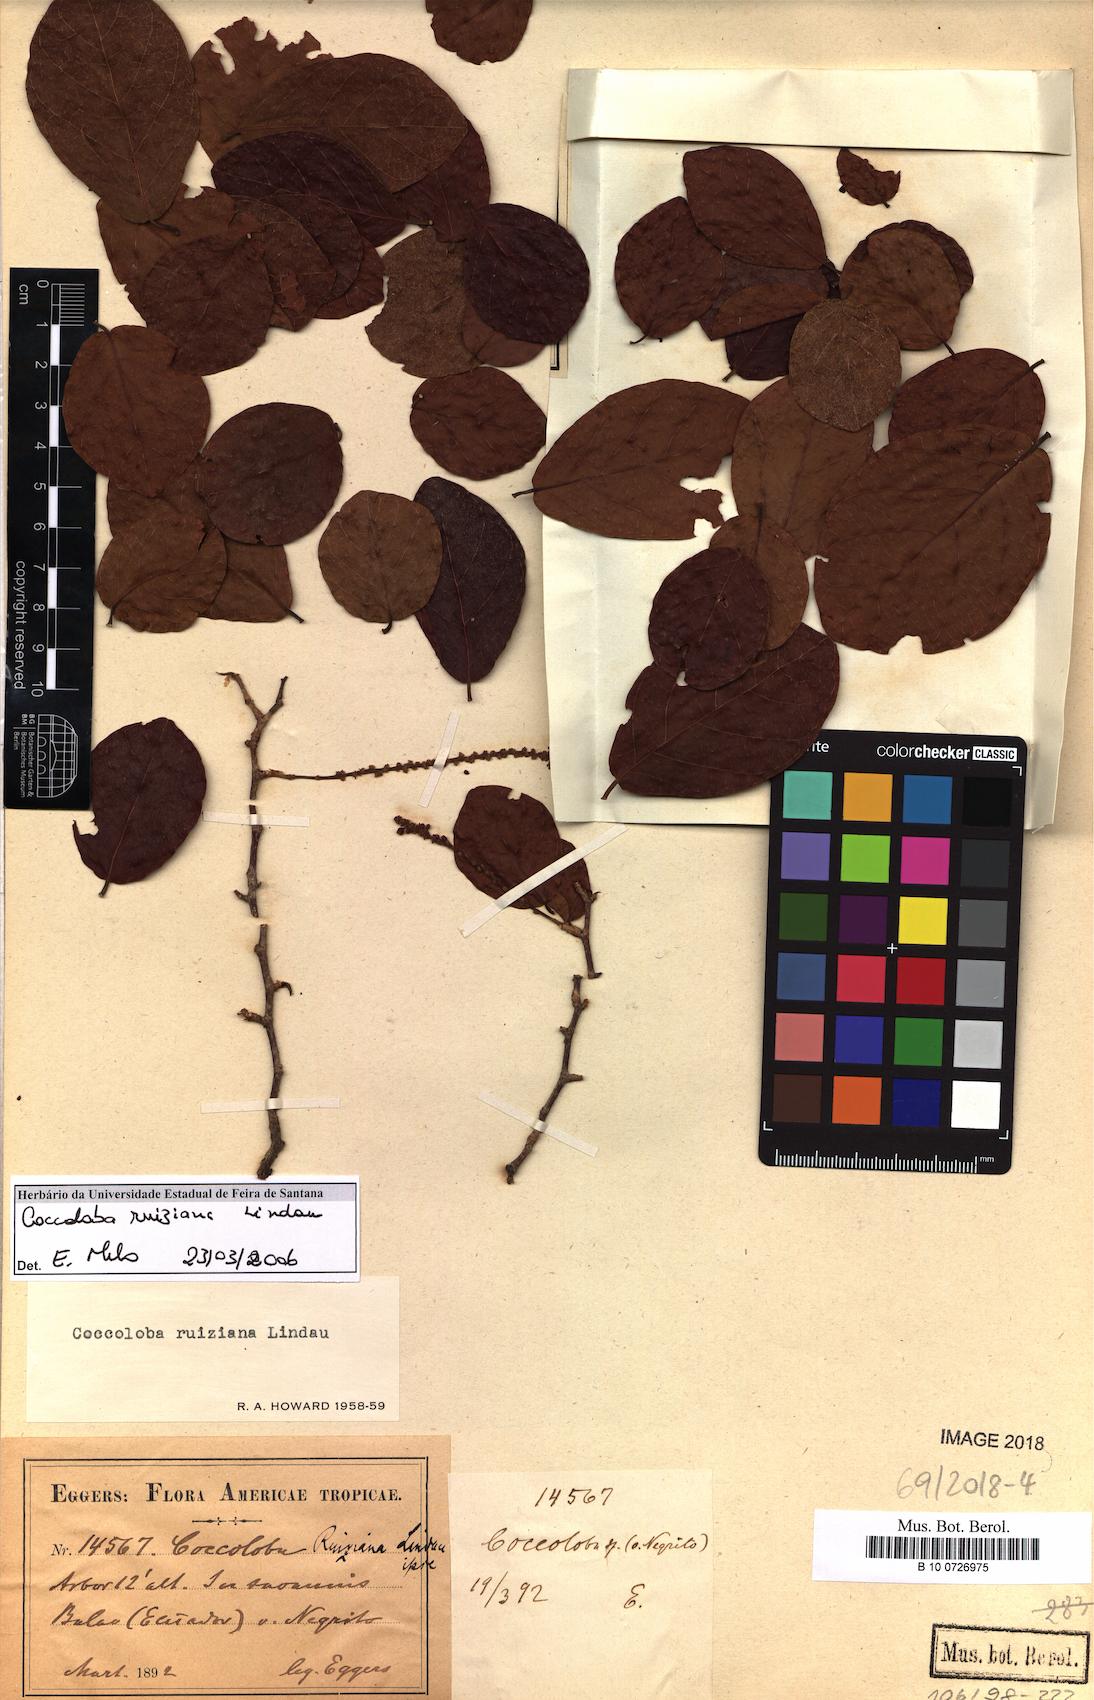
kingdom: Plantae
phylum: Tracheophyta
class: Magnoliopsida
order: Caryophyllales
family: Polygonaceae
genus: Coccoloba
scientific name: Coccoloba ruiziana
